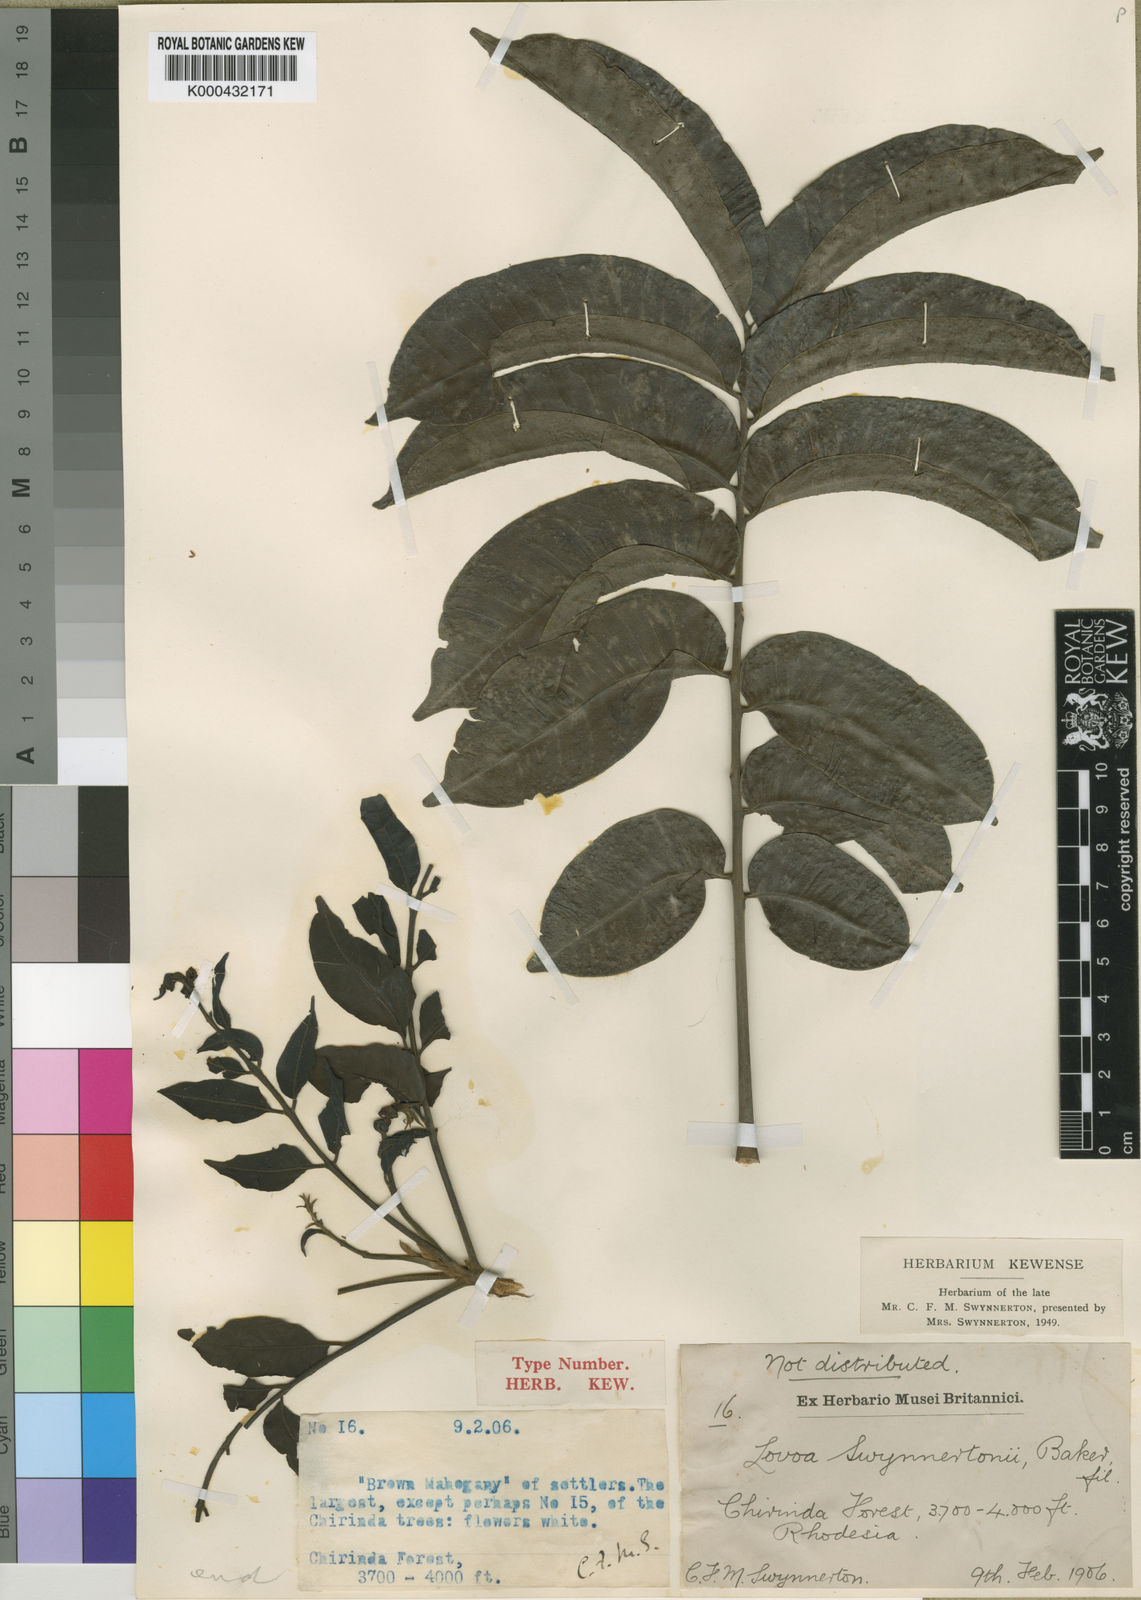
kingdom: Plantae
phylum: Tracheophyta
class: Magnoliopsida
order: Sapindales
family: Meliaceae
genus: Lovoa
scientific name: Lovoa swynnertonii
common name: Brown mahogany
